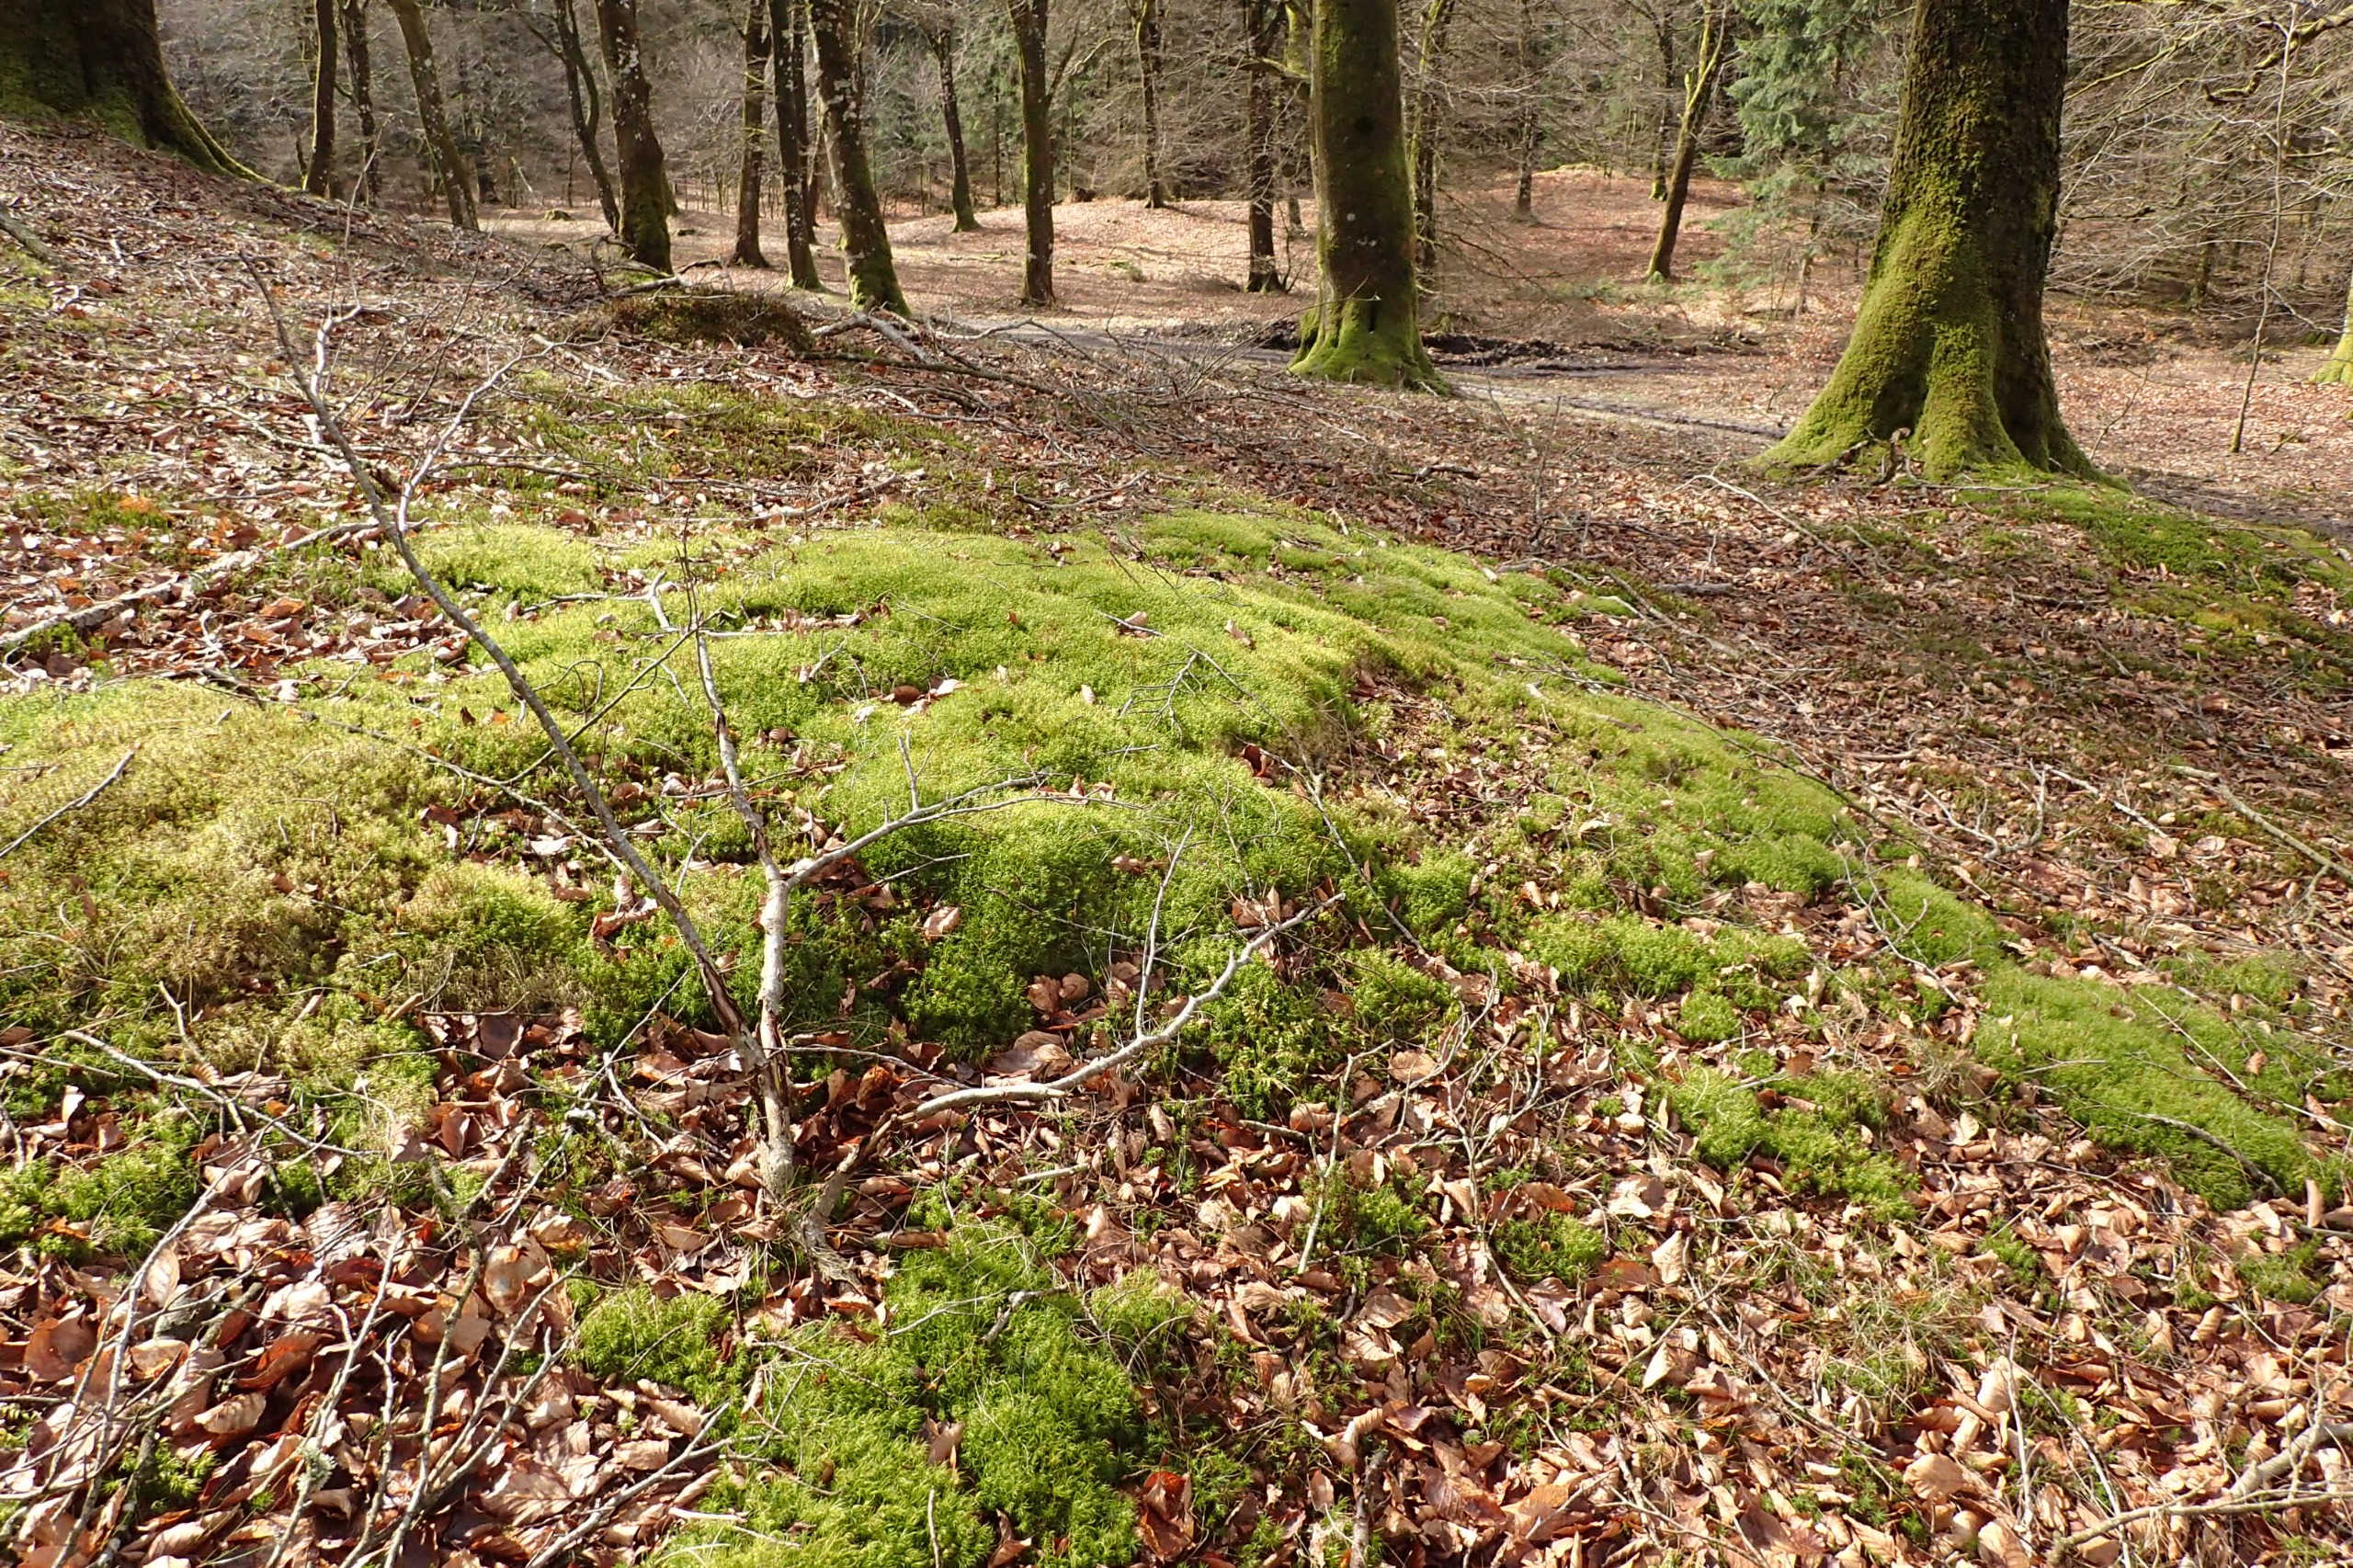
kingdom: Plantae
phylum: Bryophyta
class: Bryopsida
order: Dicranales
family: Dicranaceae
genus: Dicranum
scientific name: Dicranum majus
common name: Stor kløvtand
